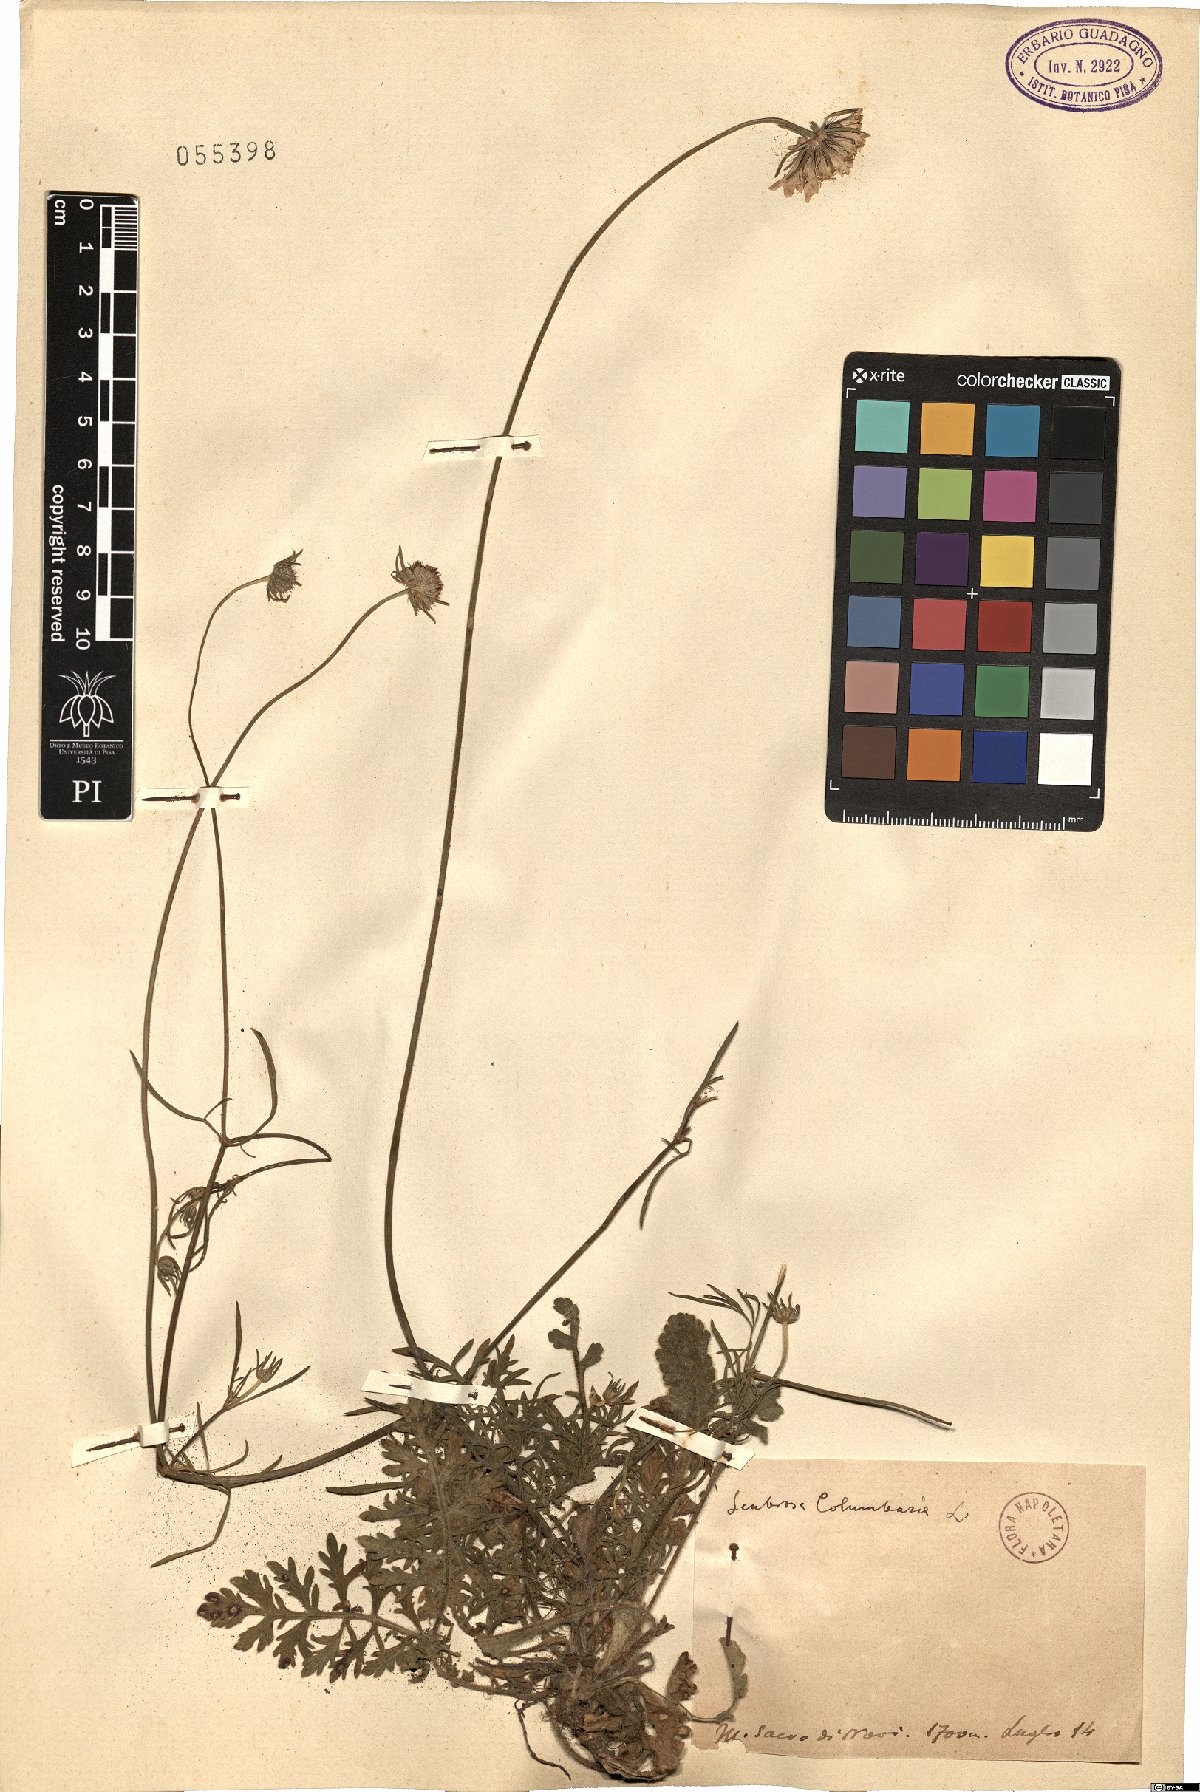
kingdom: Plantae
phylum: Tracheophyta
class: Magnoliopsida
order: Dipsacales
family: Caprifoliaceae
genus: Scabiosa
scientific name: Scabiosa columbaria
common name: Small scabious
